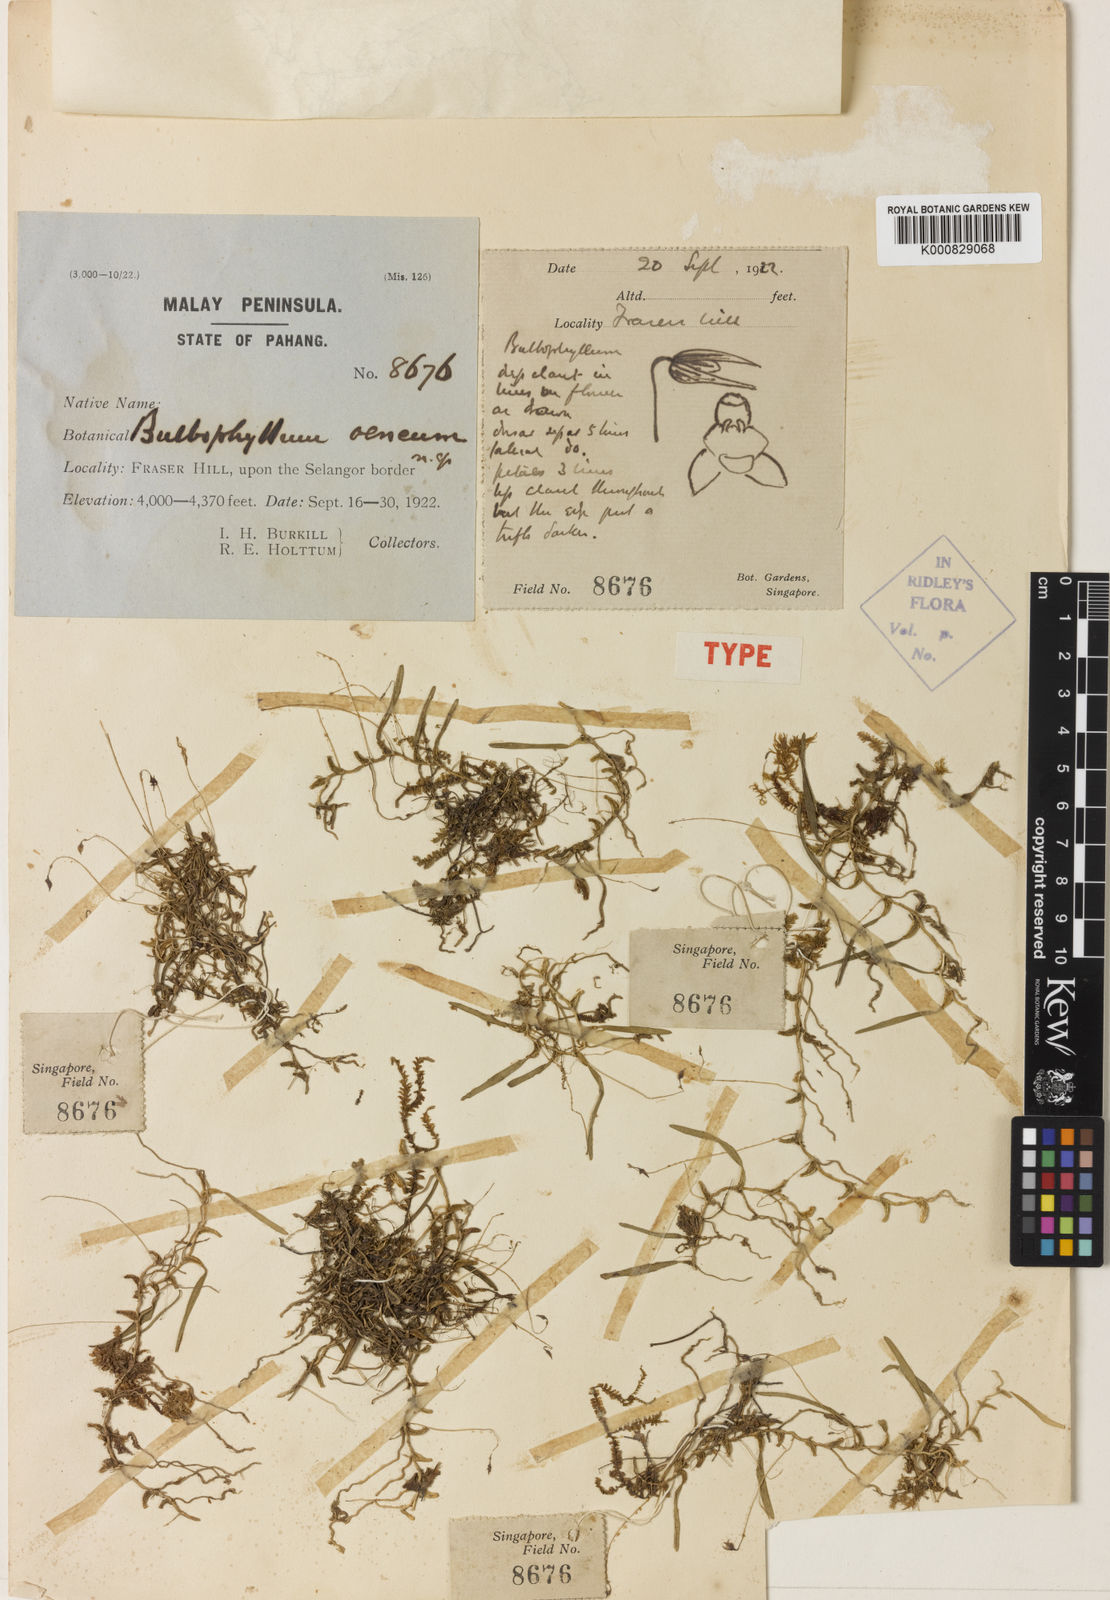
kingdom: Plantae
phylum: Tracheophyta
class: Liliopsida
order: Asparagales
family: Orchidaceae
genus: Bulbophyllum
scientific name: Bulbophyllum oeneum
